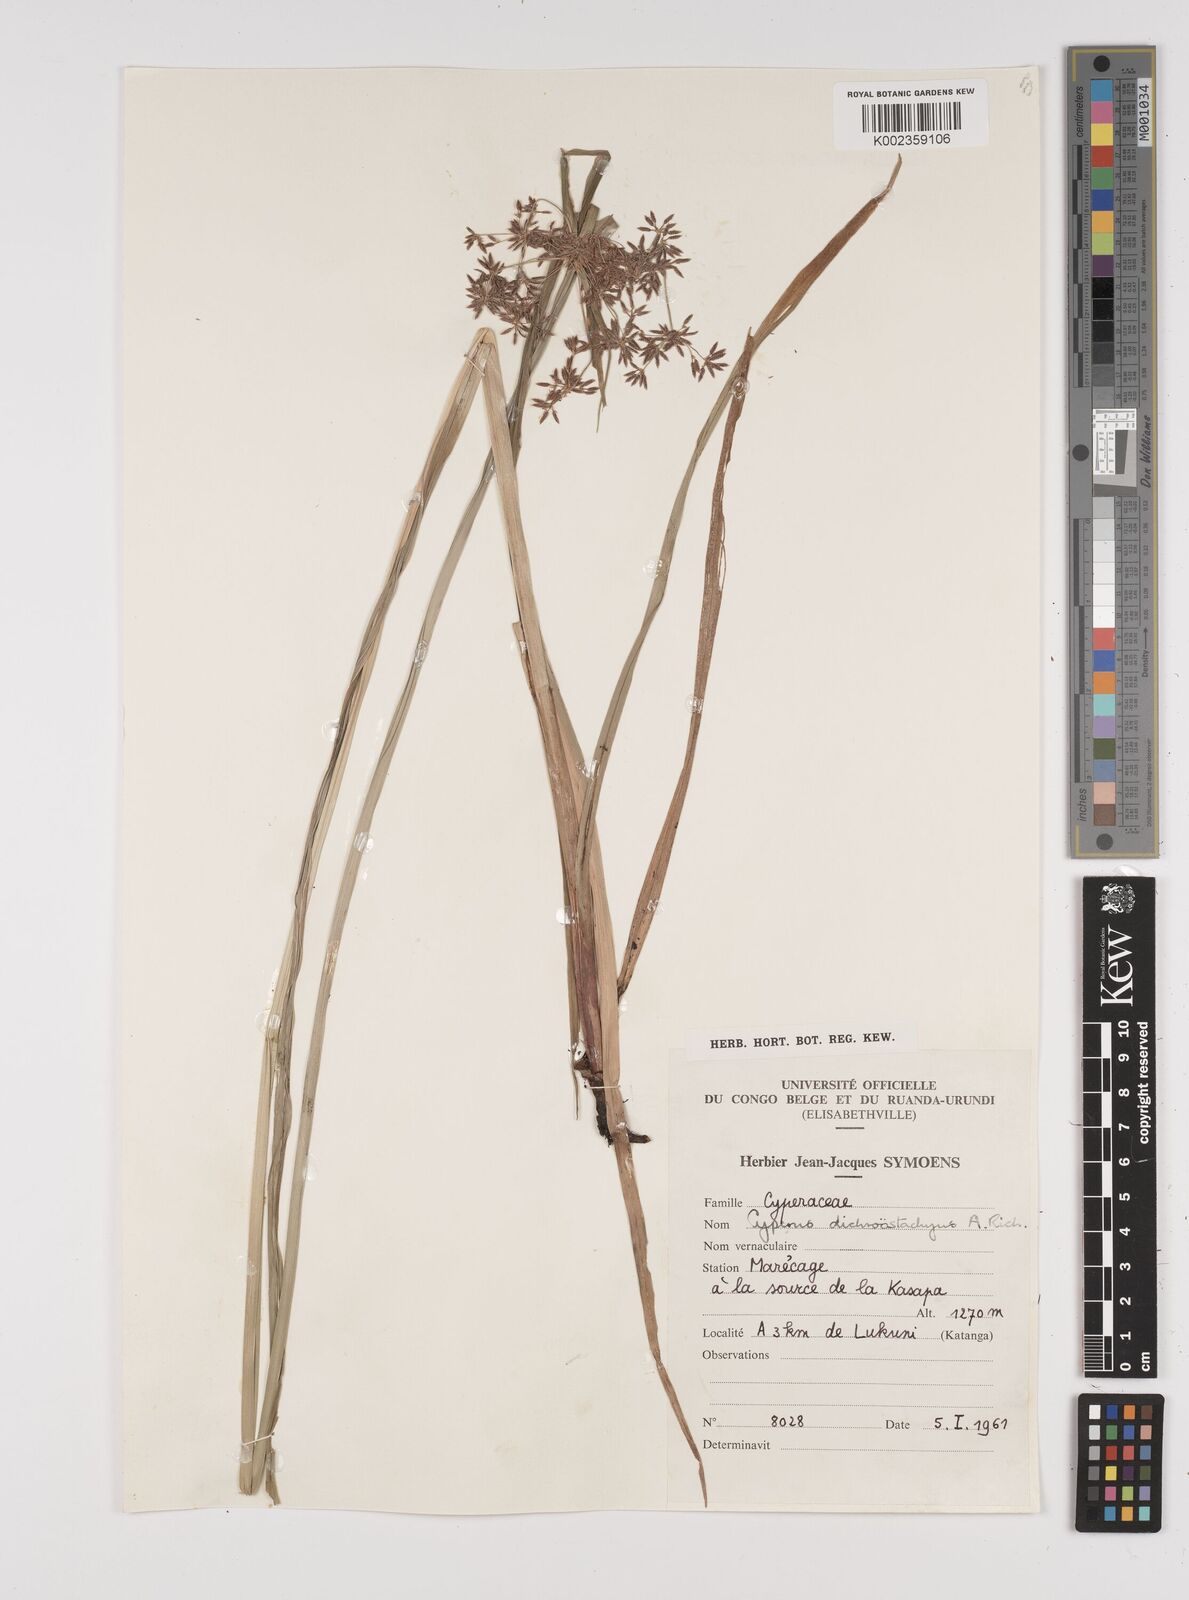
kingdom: Plantae
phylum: Tracheophyta
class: Liliopsida
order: Poales
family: Cyperaceae
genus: Cyperus
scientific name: Cyperus dichrostachyus
